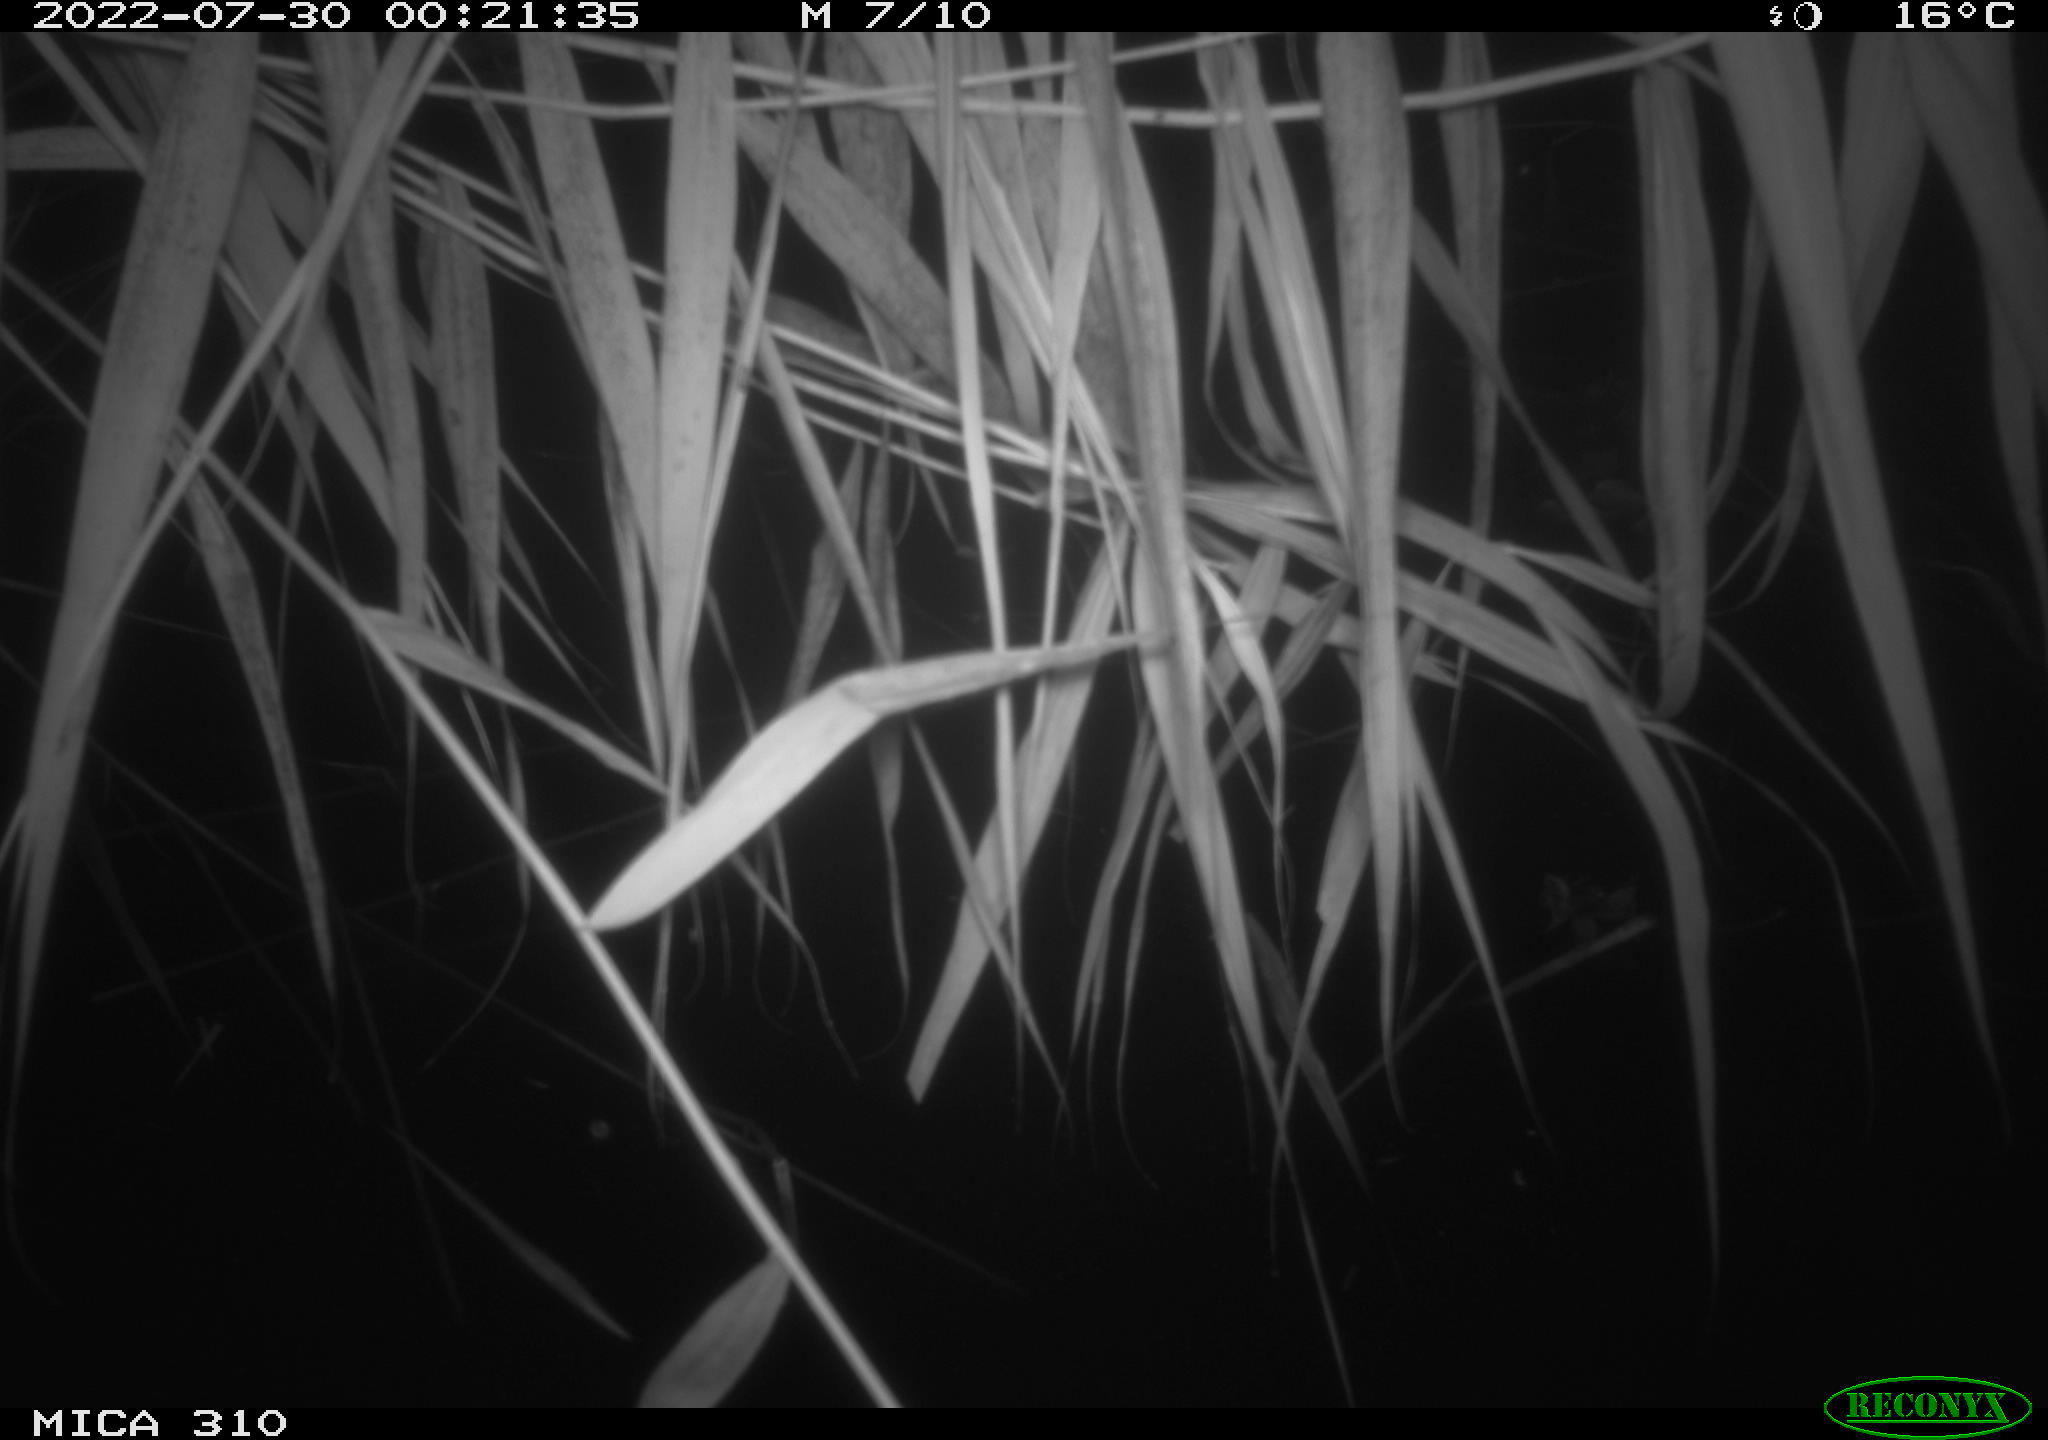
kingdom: Animalia
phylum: Chordata
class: Aves
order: Anseriformes
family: Anatidae
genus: Anas
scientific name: Anas platyrhynchos
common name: Mallard
